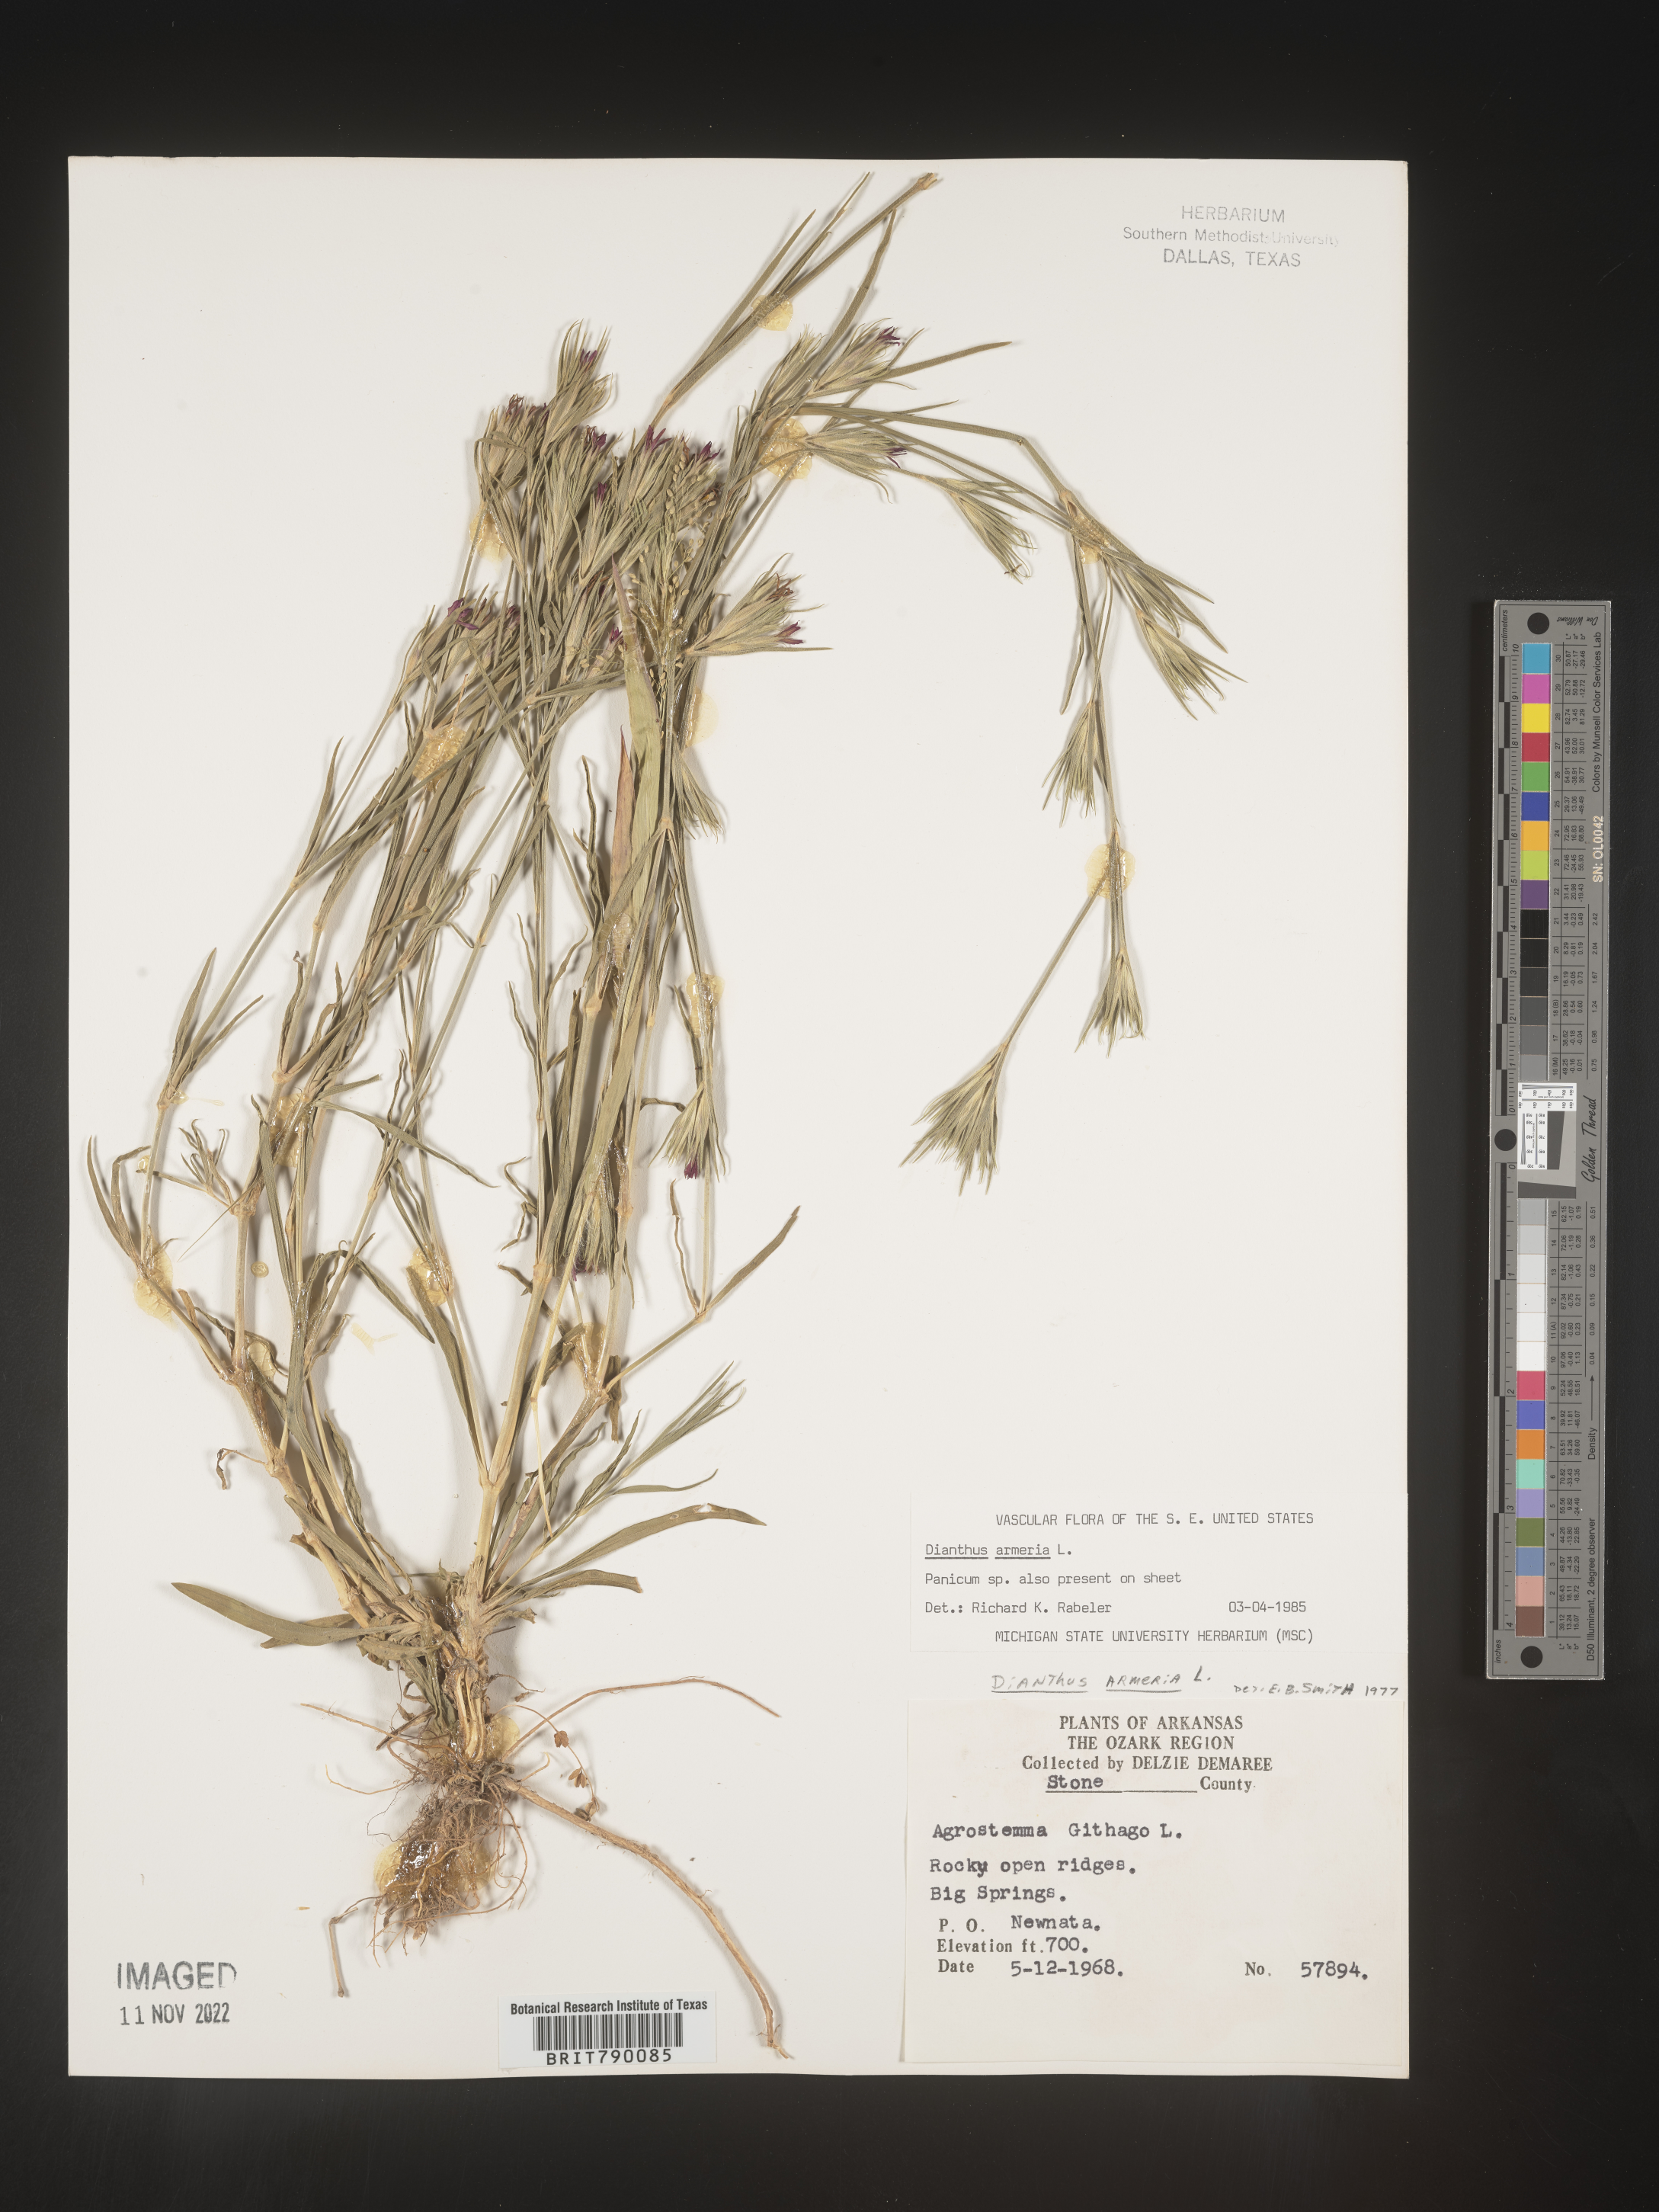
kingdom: Plantae
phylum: Tracheophyta
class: Magnoliopsida
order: Caryophyllales
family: Caryophyllaceae
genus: Dianthus
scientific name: Dianthus armeria
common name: Deptford pink
